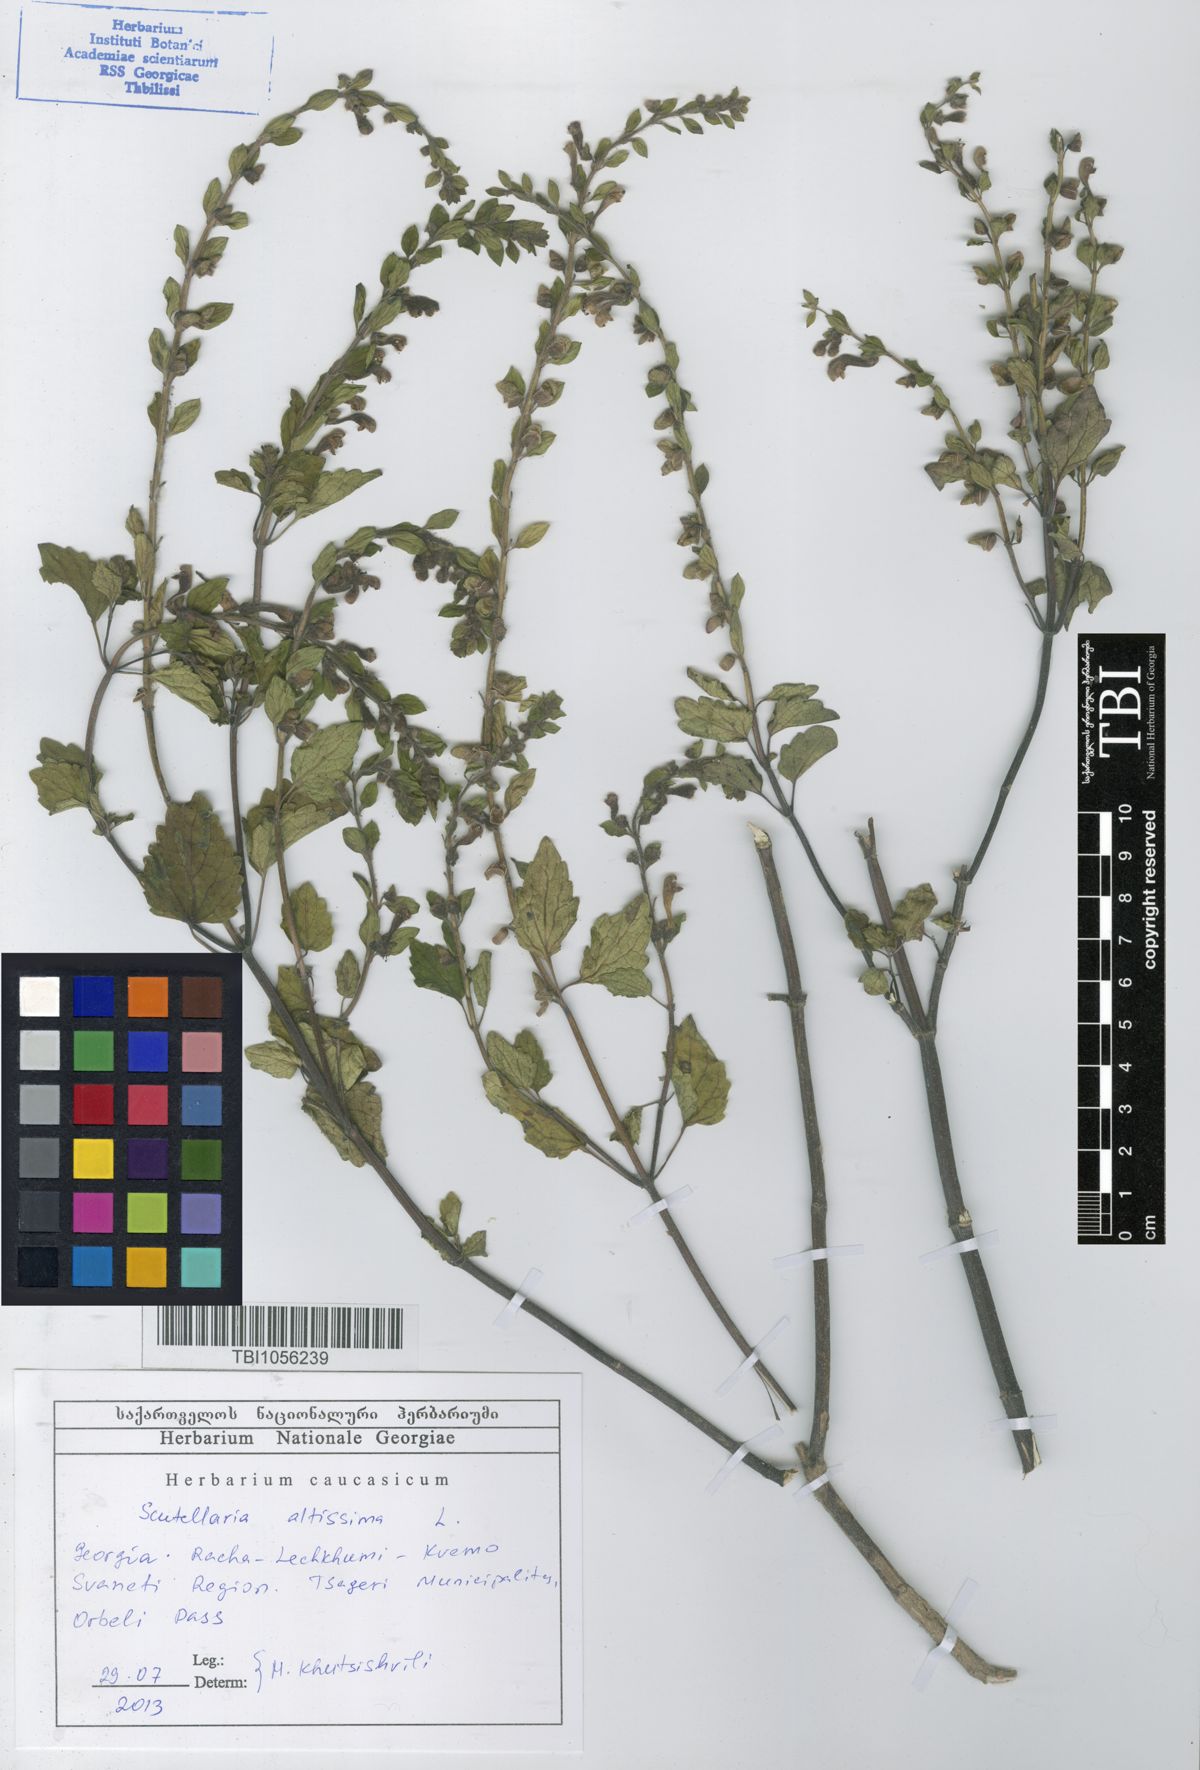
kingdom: Plantae
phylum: Tracheophyta
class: Magnoliopsida
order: Lamiales
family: Lamiaceae
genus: Scutellaria
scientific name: Scutellaria altissima
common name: Somerset skullcap
